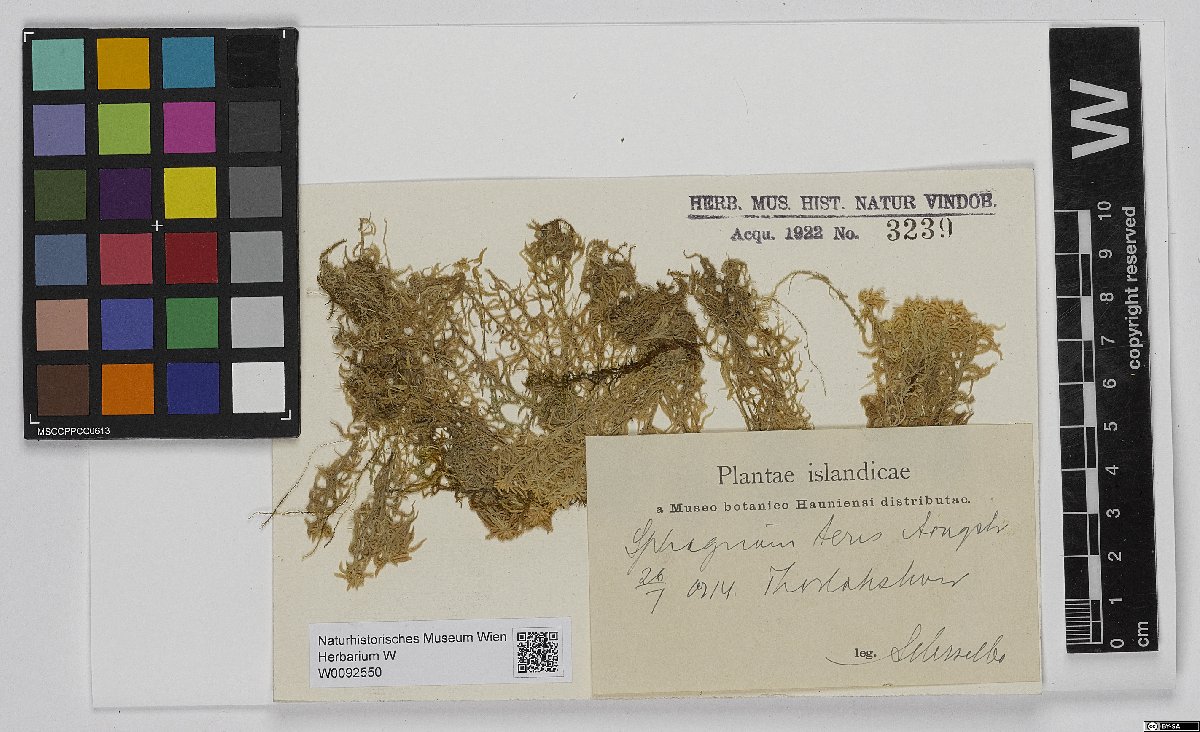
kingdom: Plantae
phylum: Bryophyta
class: Sphagnopsida
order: Sphagnales
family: Sphagnaceae
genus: Sphagnum
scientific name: Sphagnum teres
